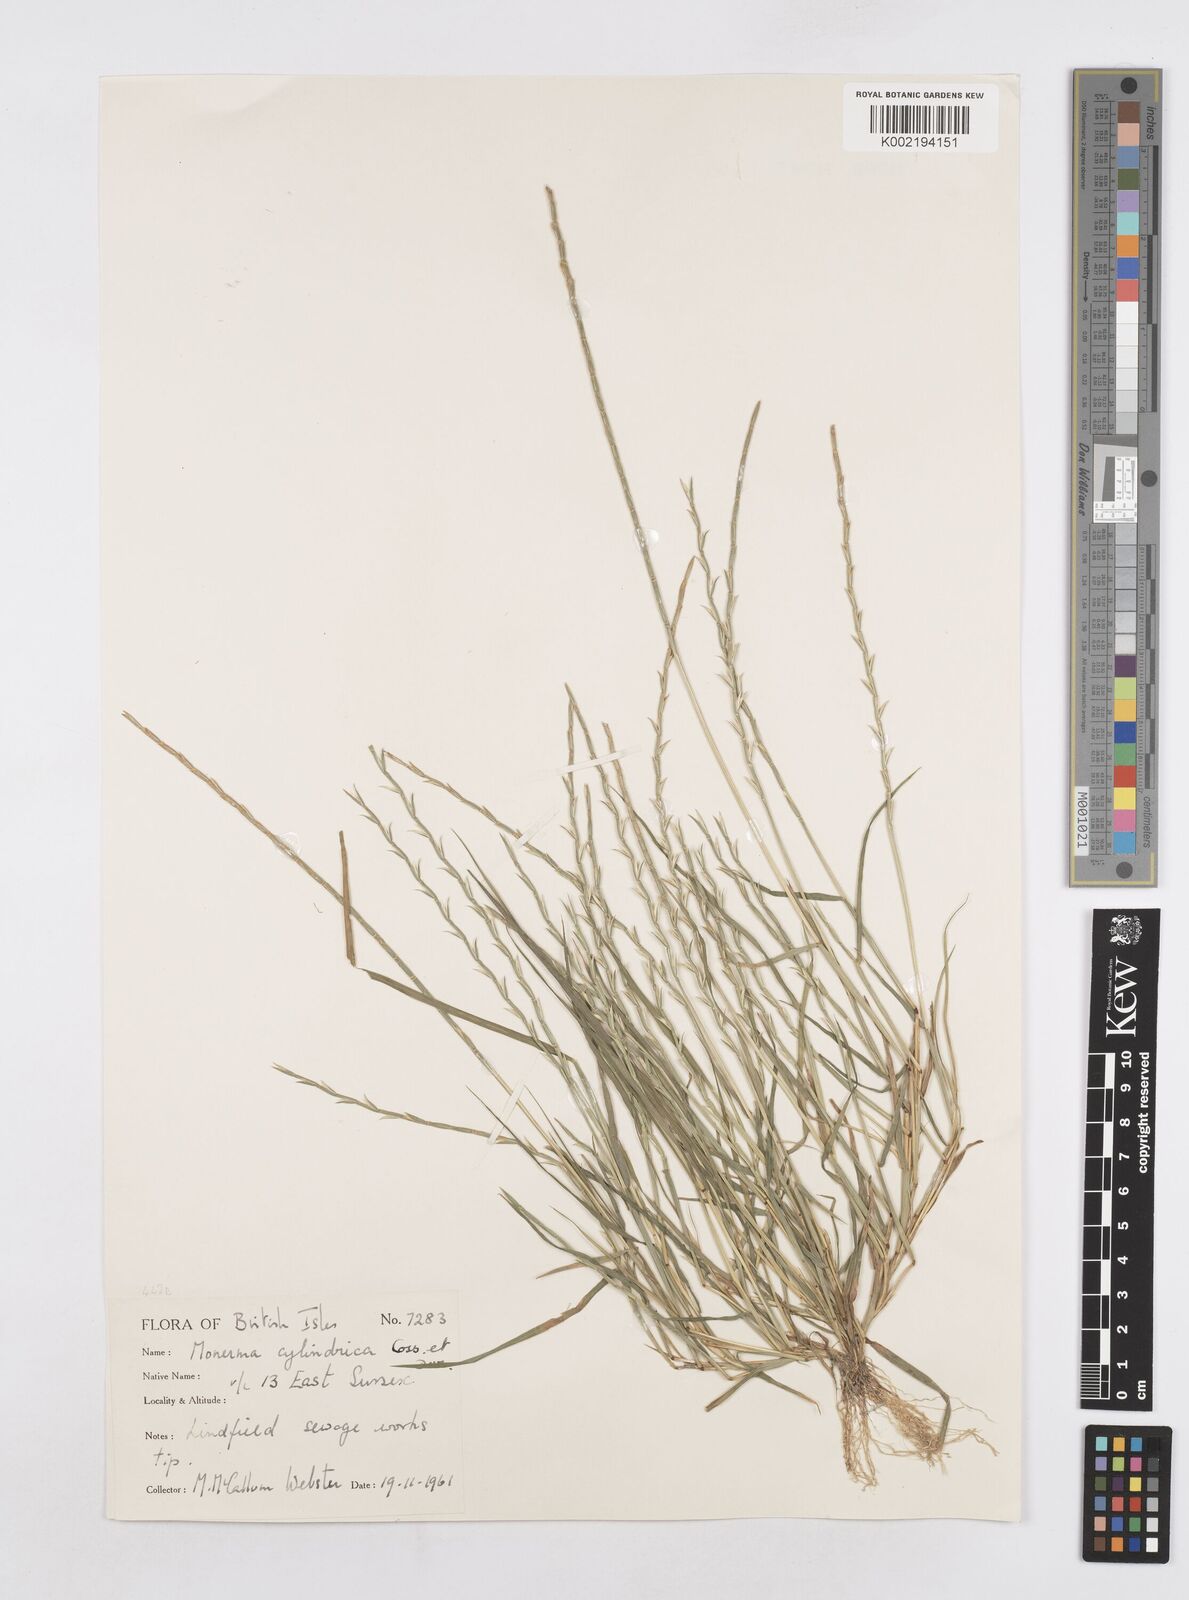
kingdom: Plantae
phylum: Tracheophyta
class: Liliopsida
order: Poales
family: Poaceae
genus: Parapholis
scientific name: Parapholis cylindrica
